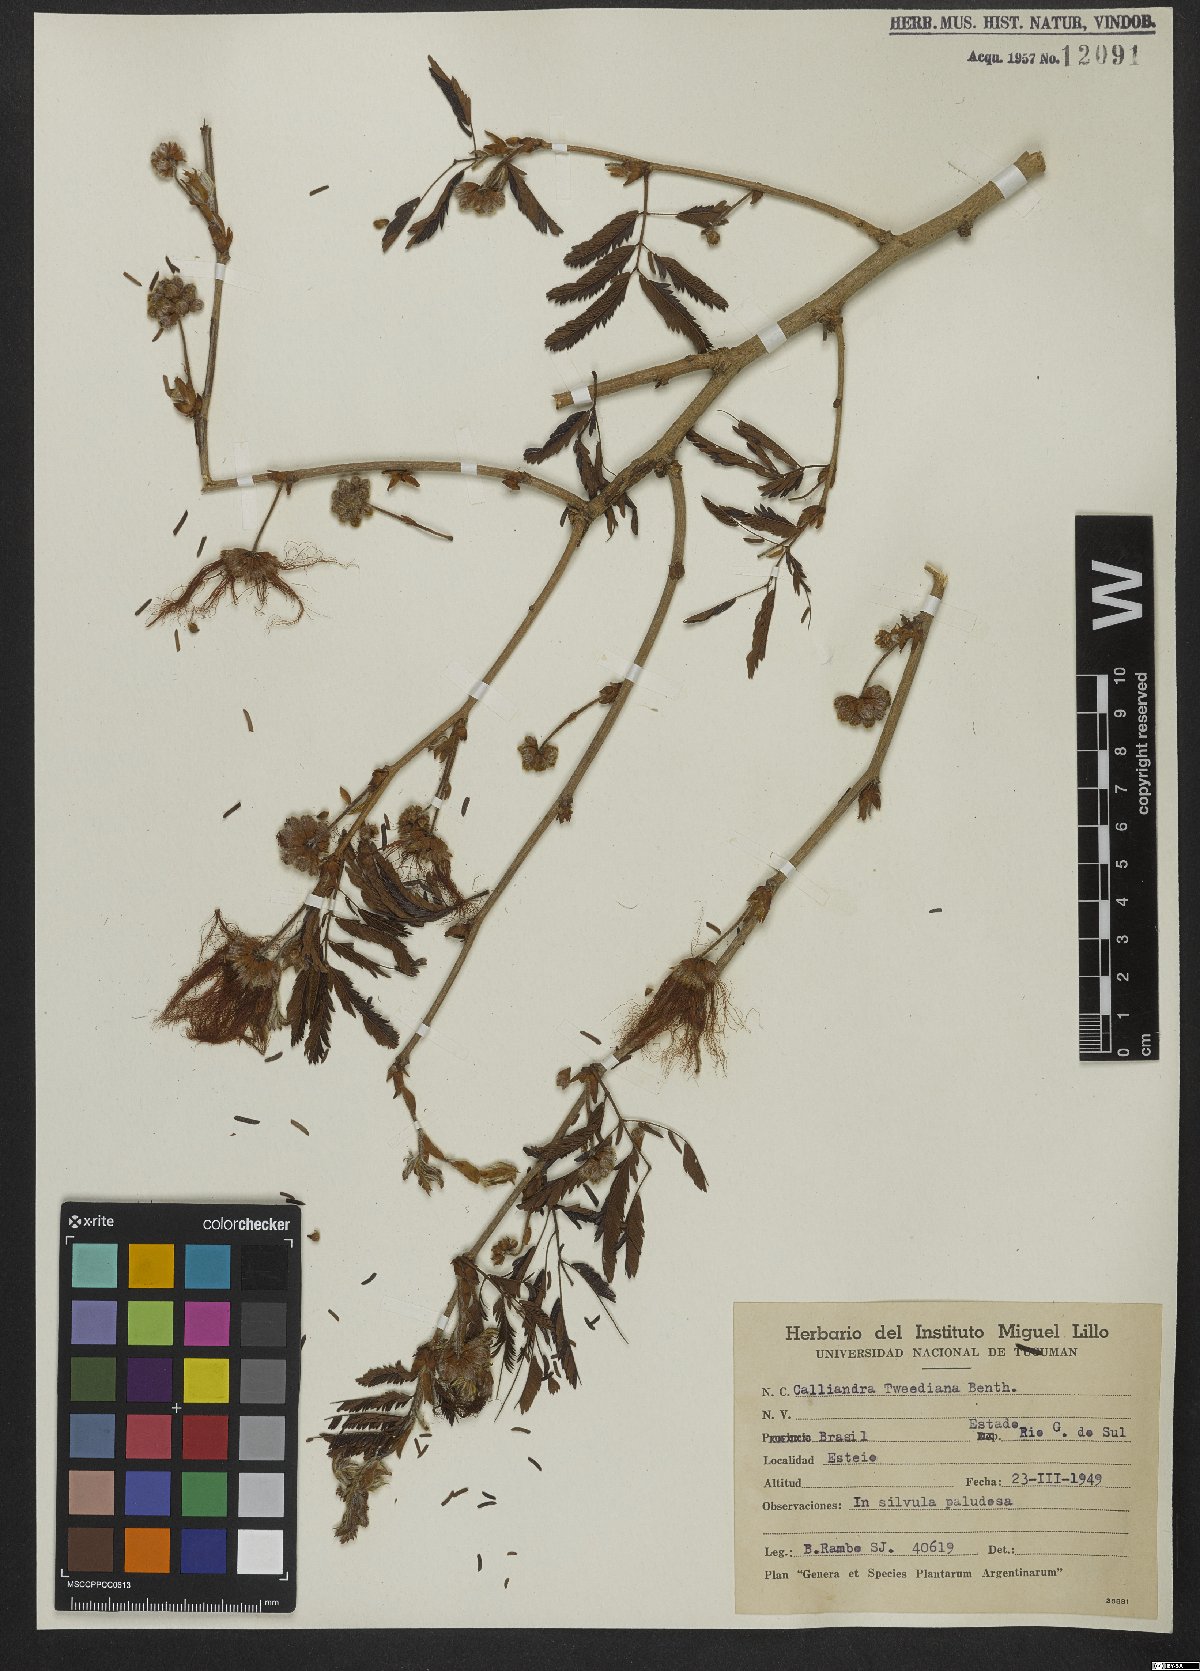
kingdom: Plantae
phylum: Tracheophyta
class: Magnoliopsida
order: Fabales
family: Fabaceae
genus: Calliandra
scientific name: Calliandra tweedii
